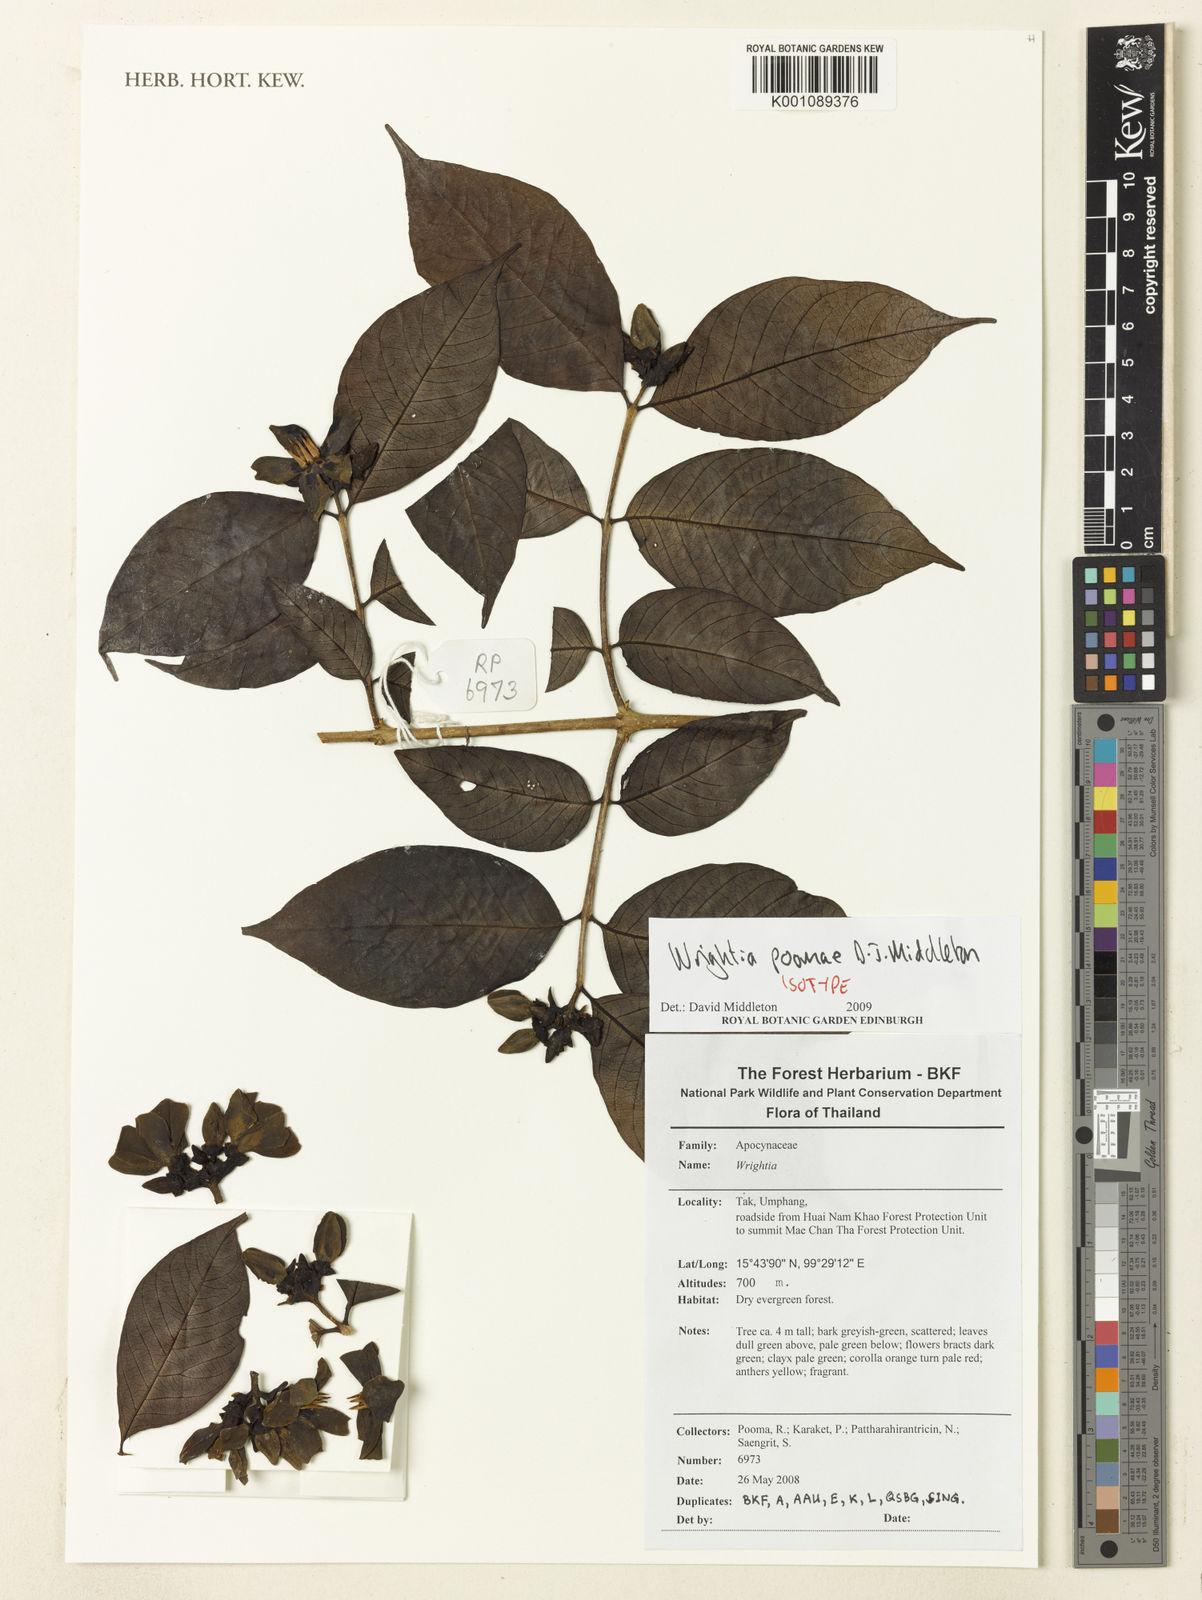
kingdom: Plantae
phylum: Tracheophyta
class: Magnoliopsida
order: Gentianales
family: Apocynaceae
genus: Wrightia
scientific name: Wrightia poomae
